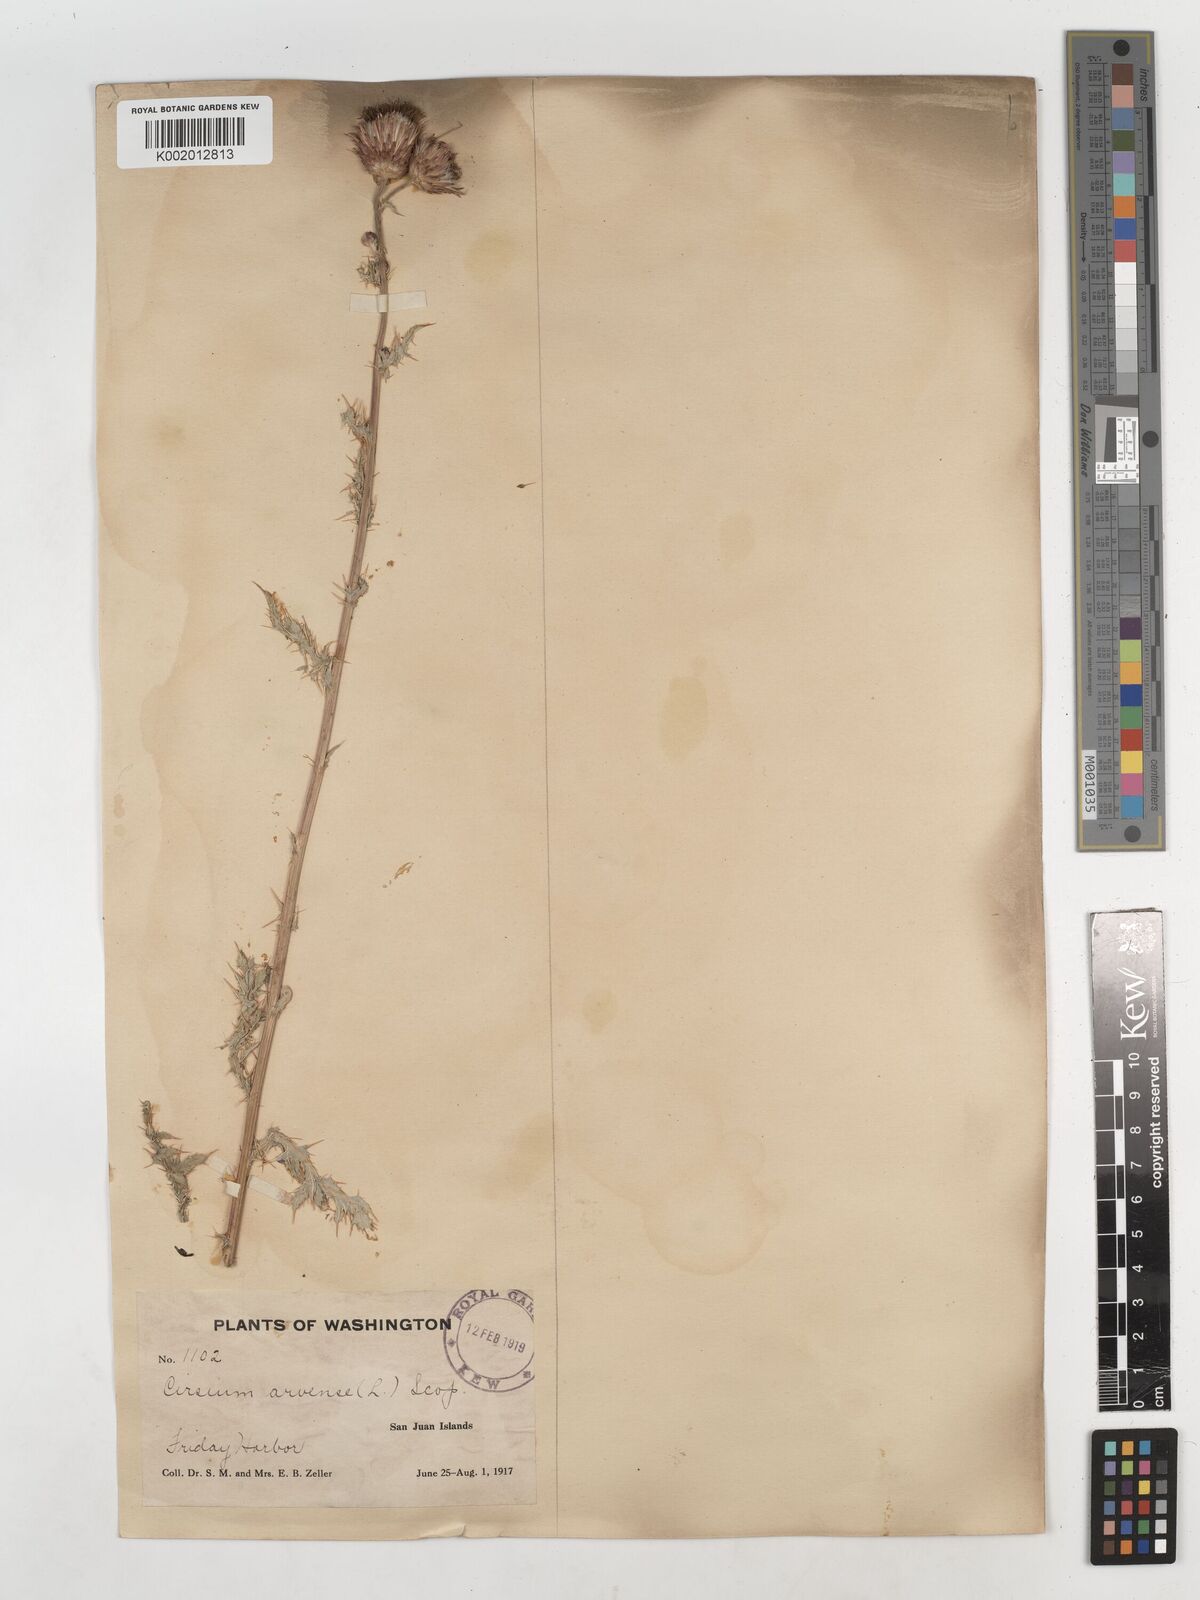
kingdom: Plantae
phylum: Tracheophyta
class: Magnoliopsida
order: Asterales
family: Asteraceae
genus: Cirsium
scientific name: Cirsium arvense
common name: Creeping thistle
